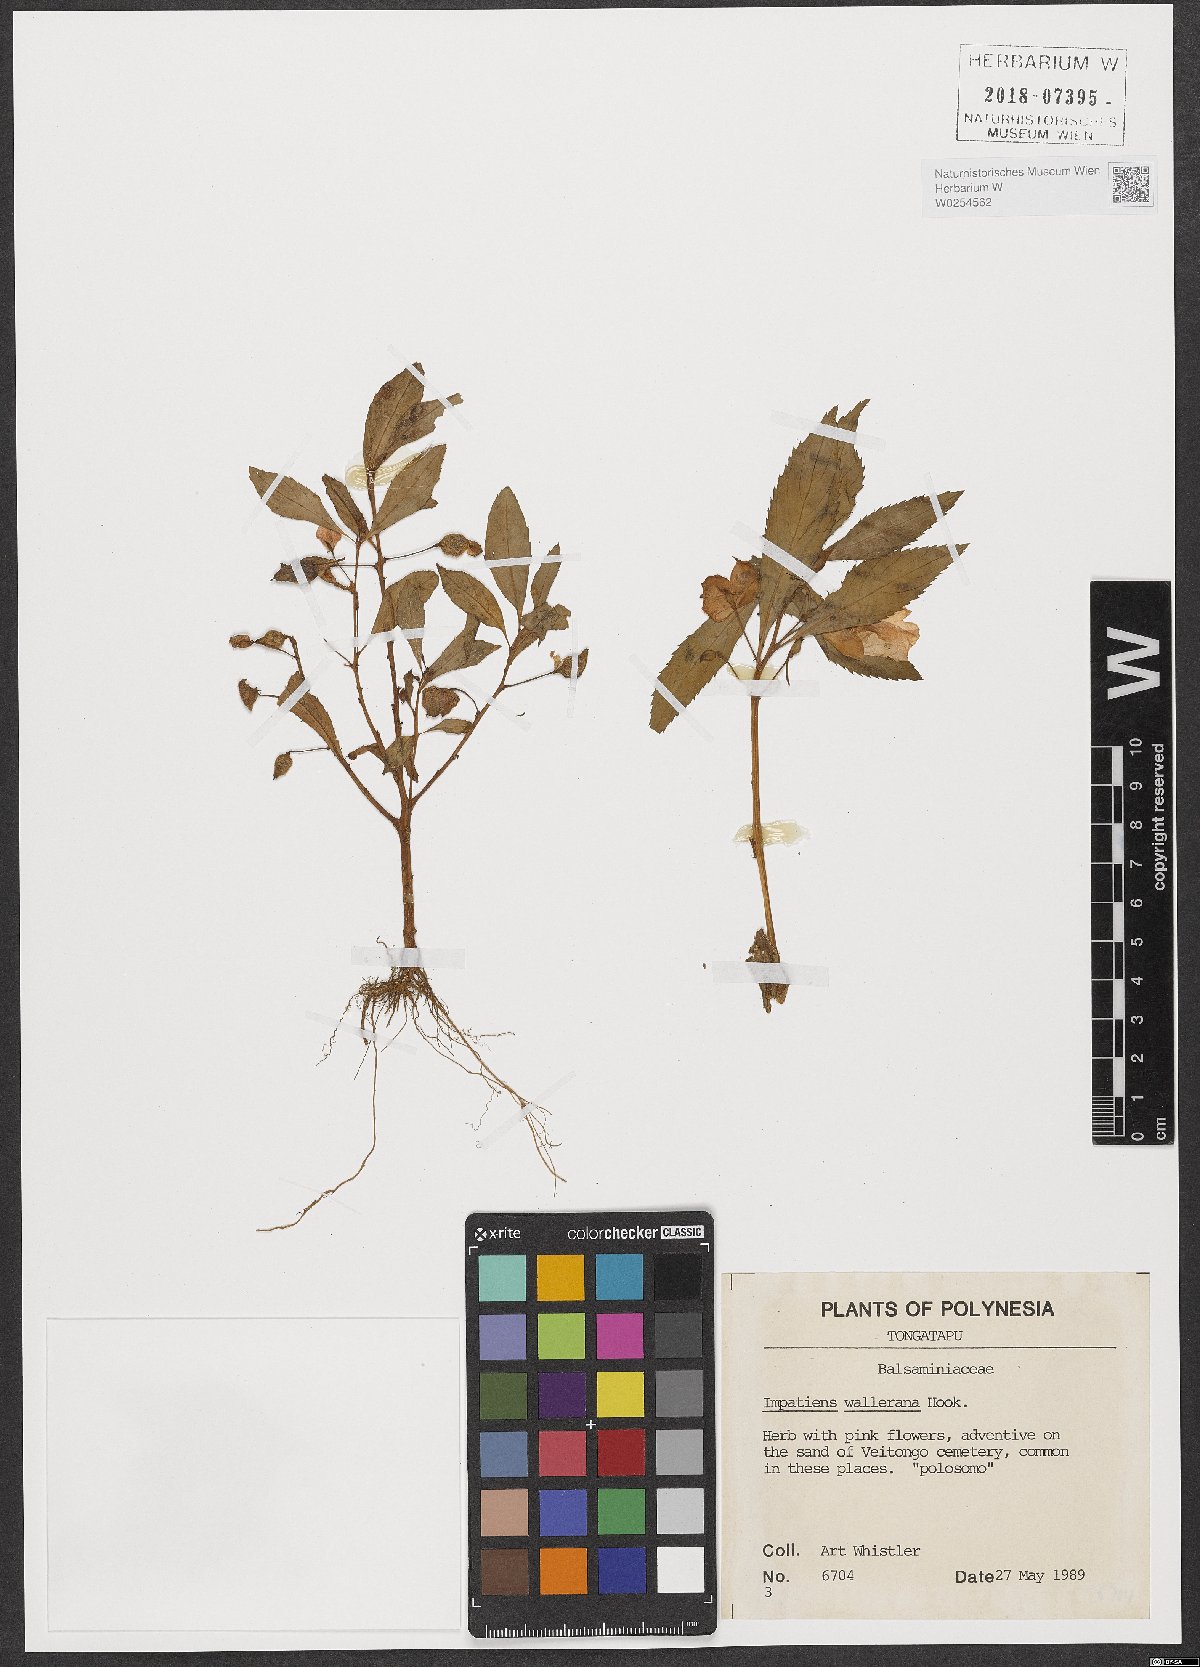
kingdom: Plantae
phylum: Tracheophyta
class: Magnoliopsida
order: Ericales
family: Balsaminaceae
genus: Impatiens
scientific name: Impatiens walleriana
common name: Buzzy lizzy
